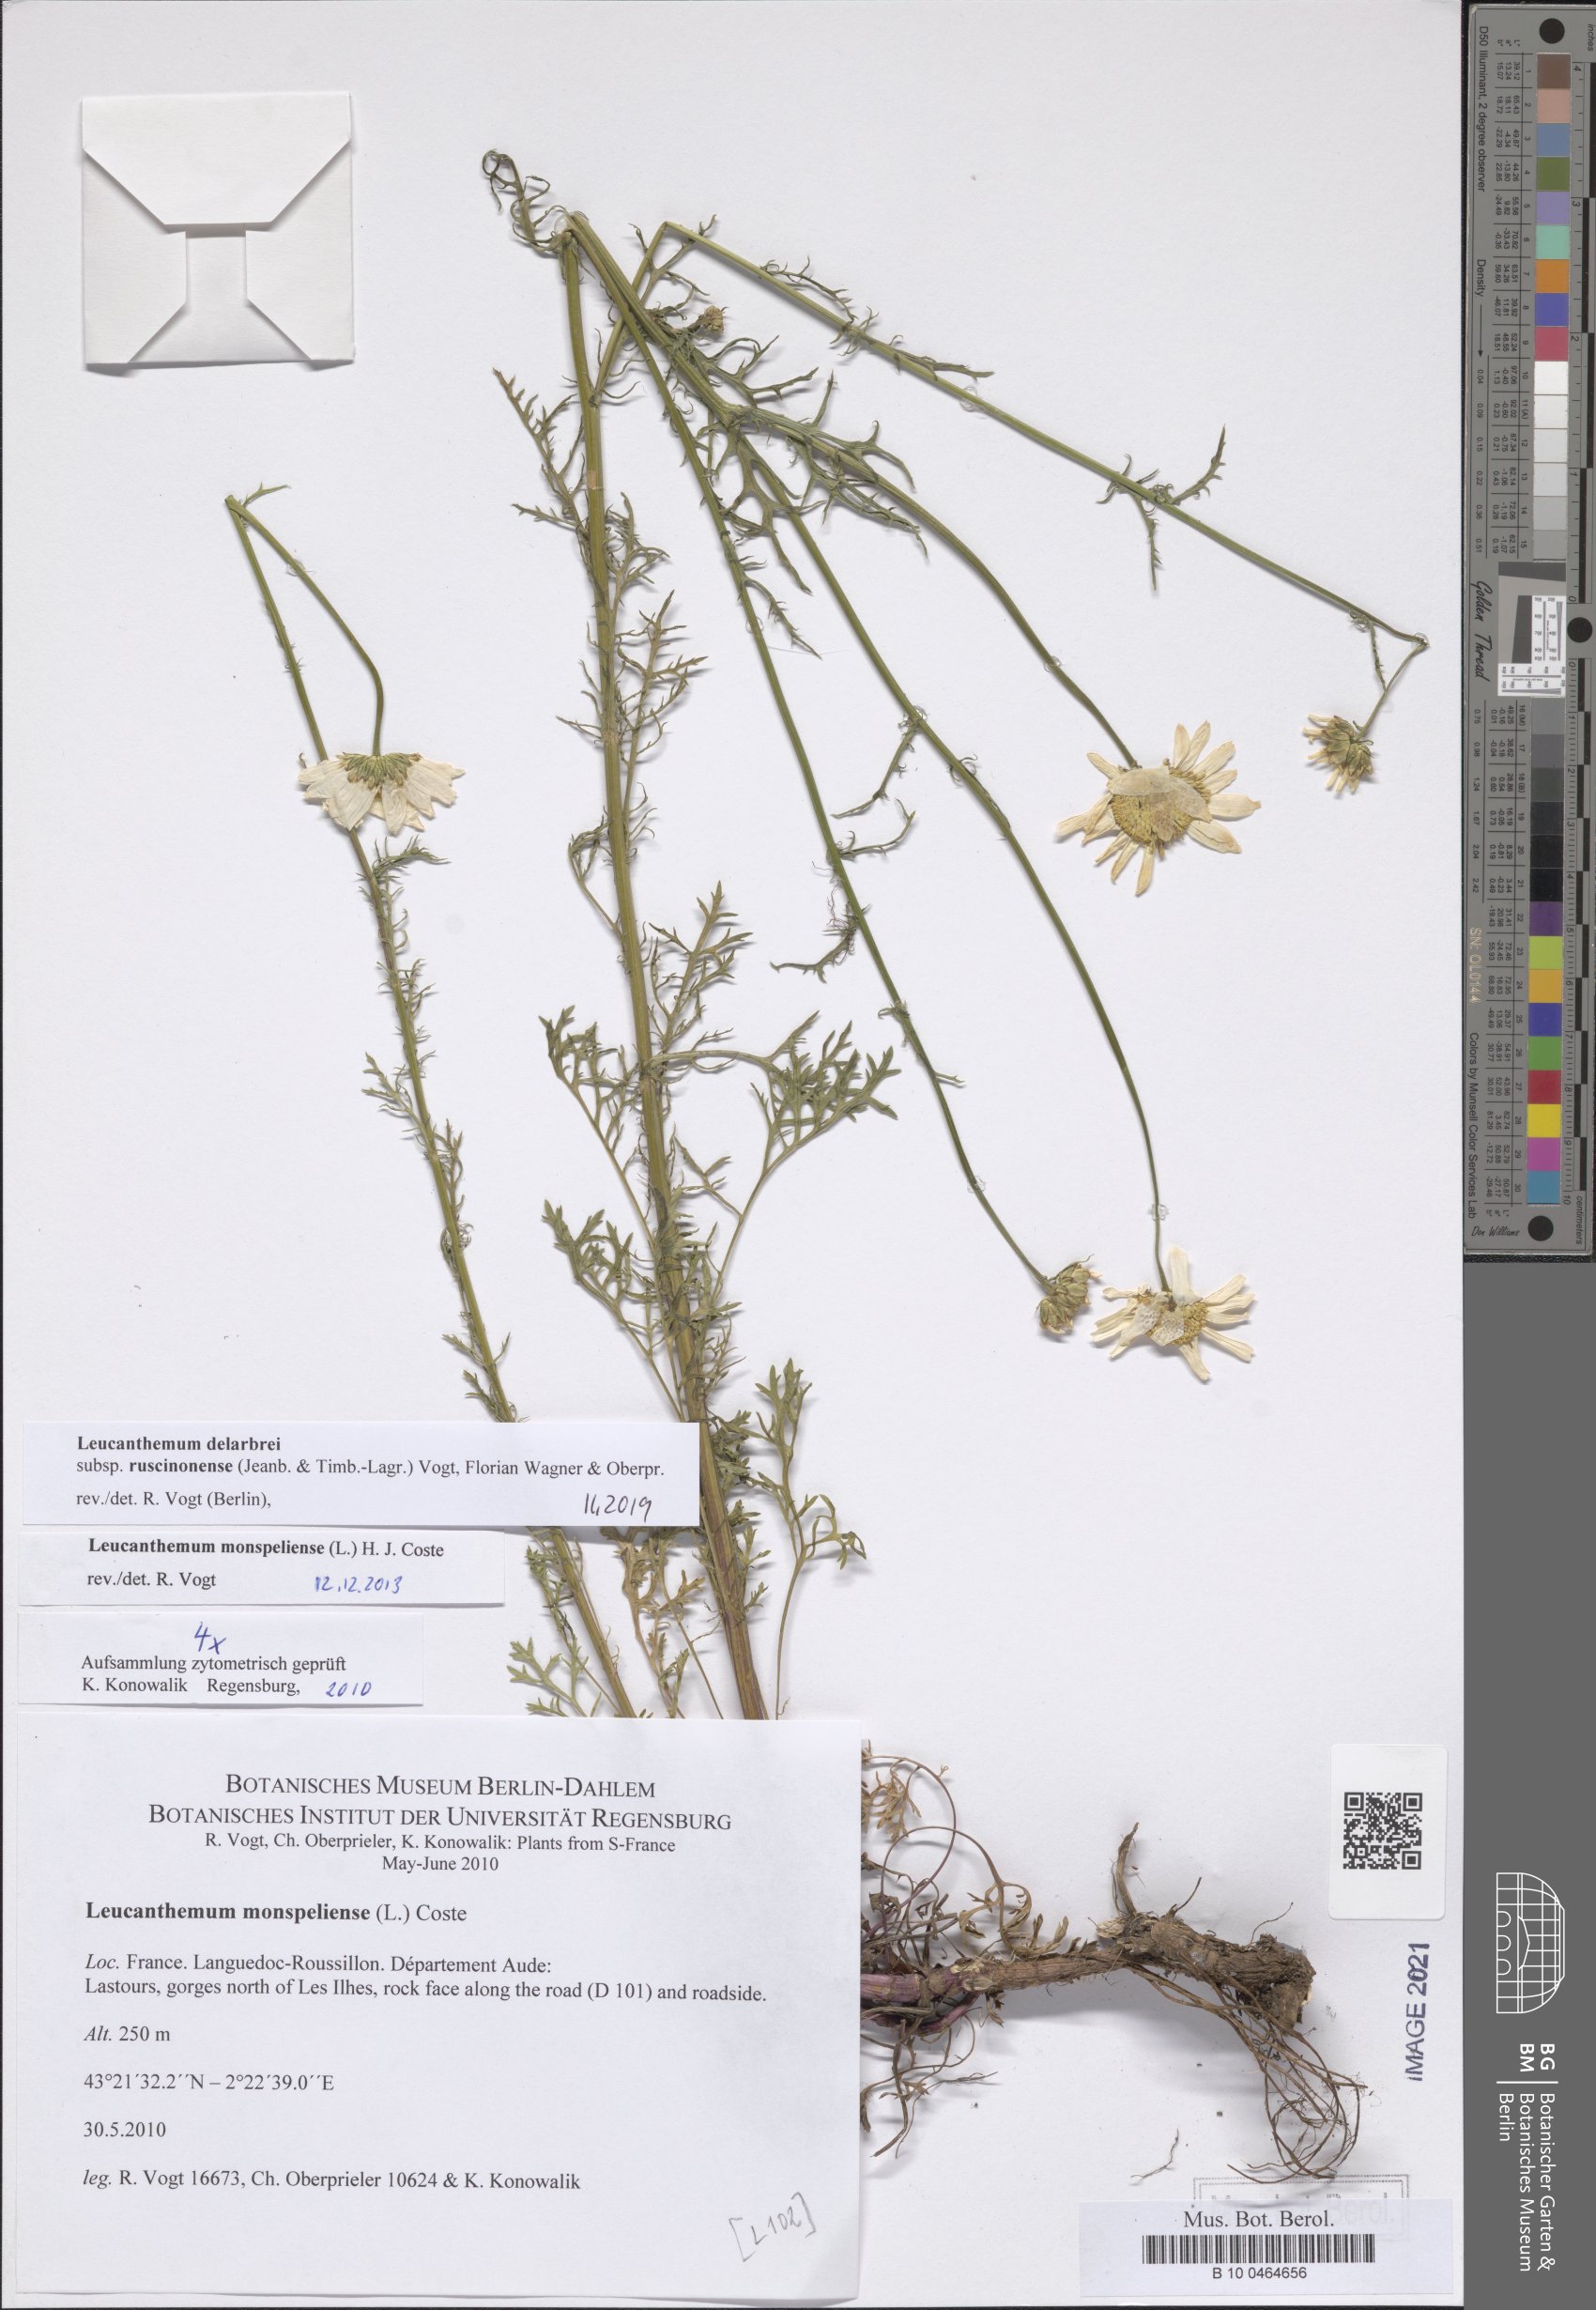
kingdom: Plantae
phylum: Tracheophyta
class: Magnoliopsida
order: Asterales
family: Asteraceae
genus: Leucanthemum
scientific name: Leucanthemum delarbrei
